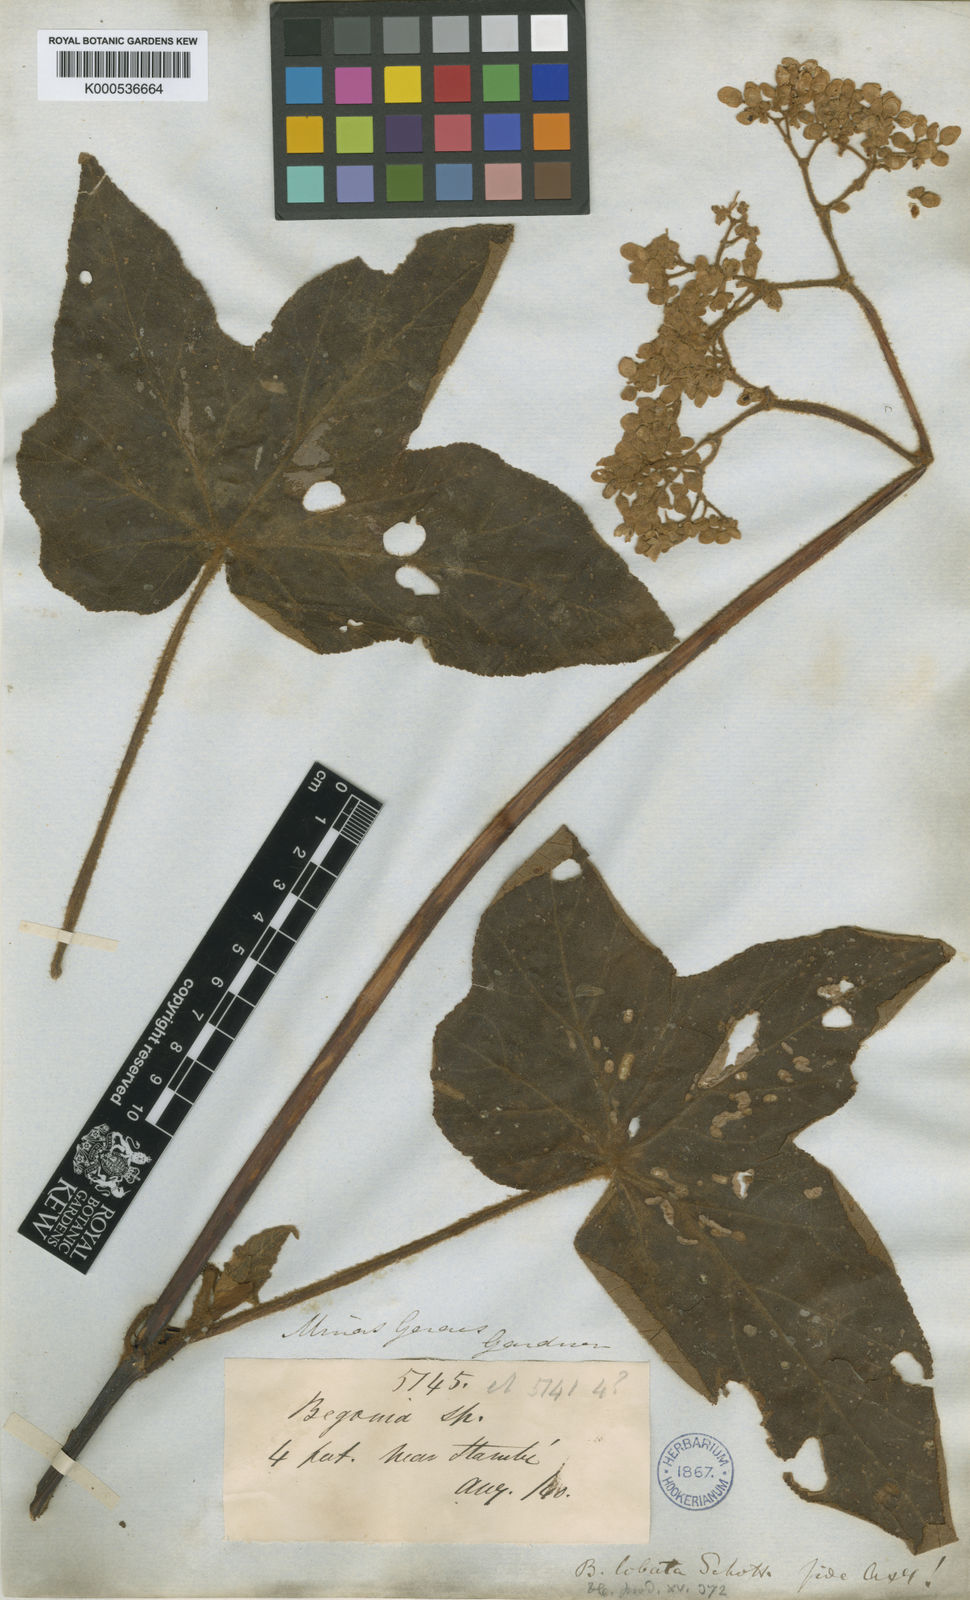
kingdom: Plantae
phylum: Tracheophyta
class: Magnoliopsida
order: Cucurbitales
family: Begoniaceae
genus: Begonia
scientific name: Begonia rufa
